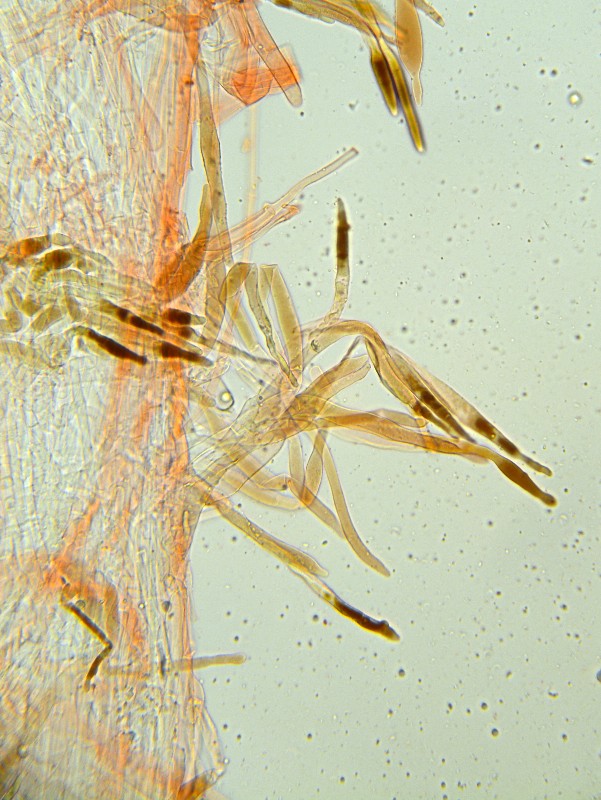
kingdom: Fungi
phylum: Basidiomycota
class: Agaricomycetes
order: Agaricales
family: Pluteaceae
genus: Pluteus
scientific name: Pluteus podospileus
